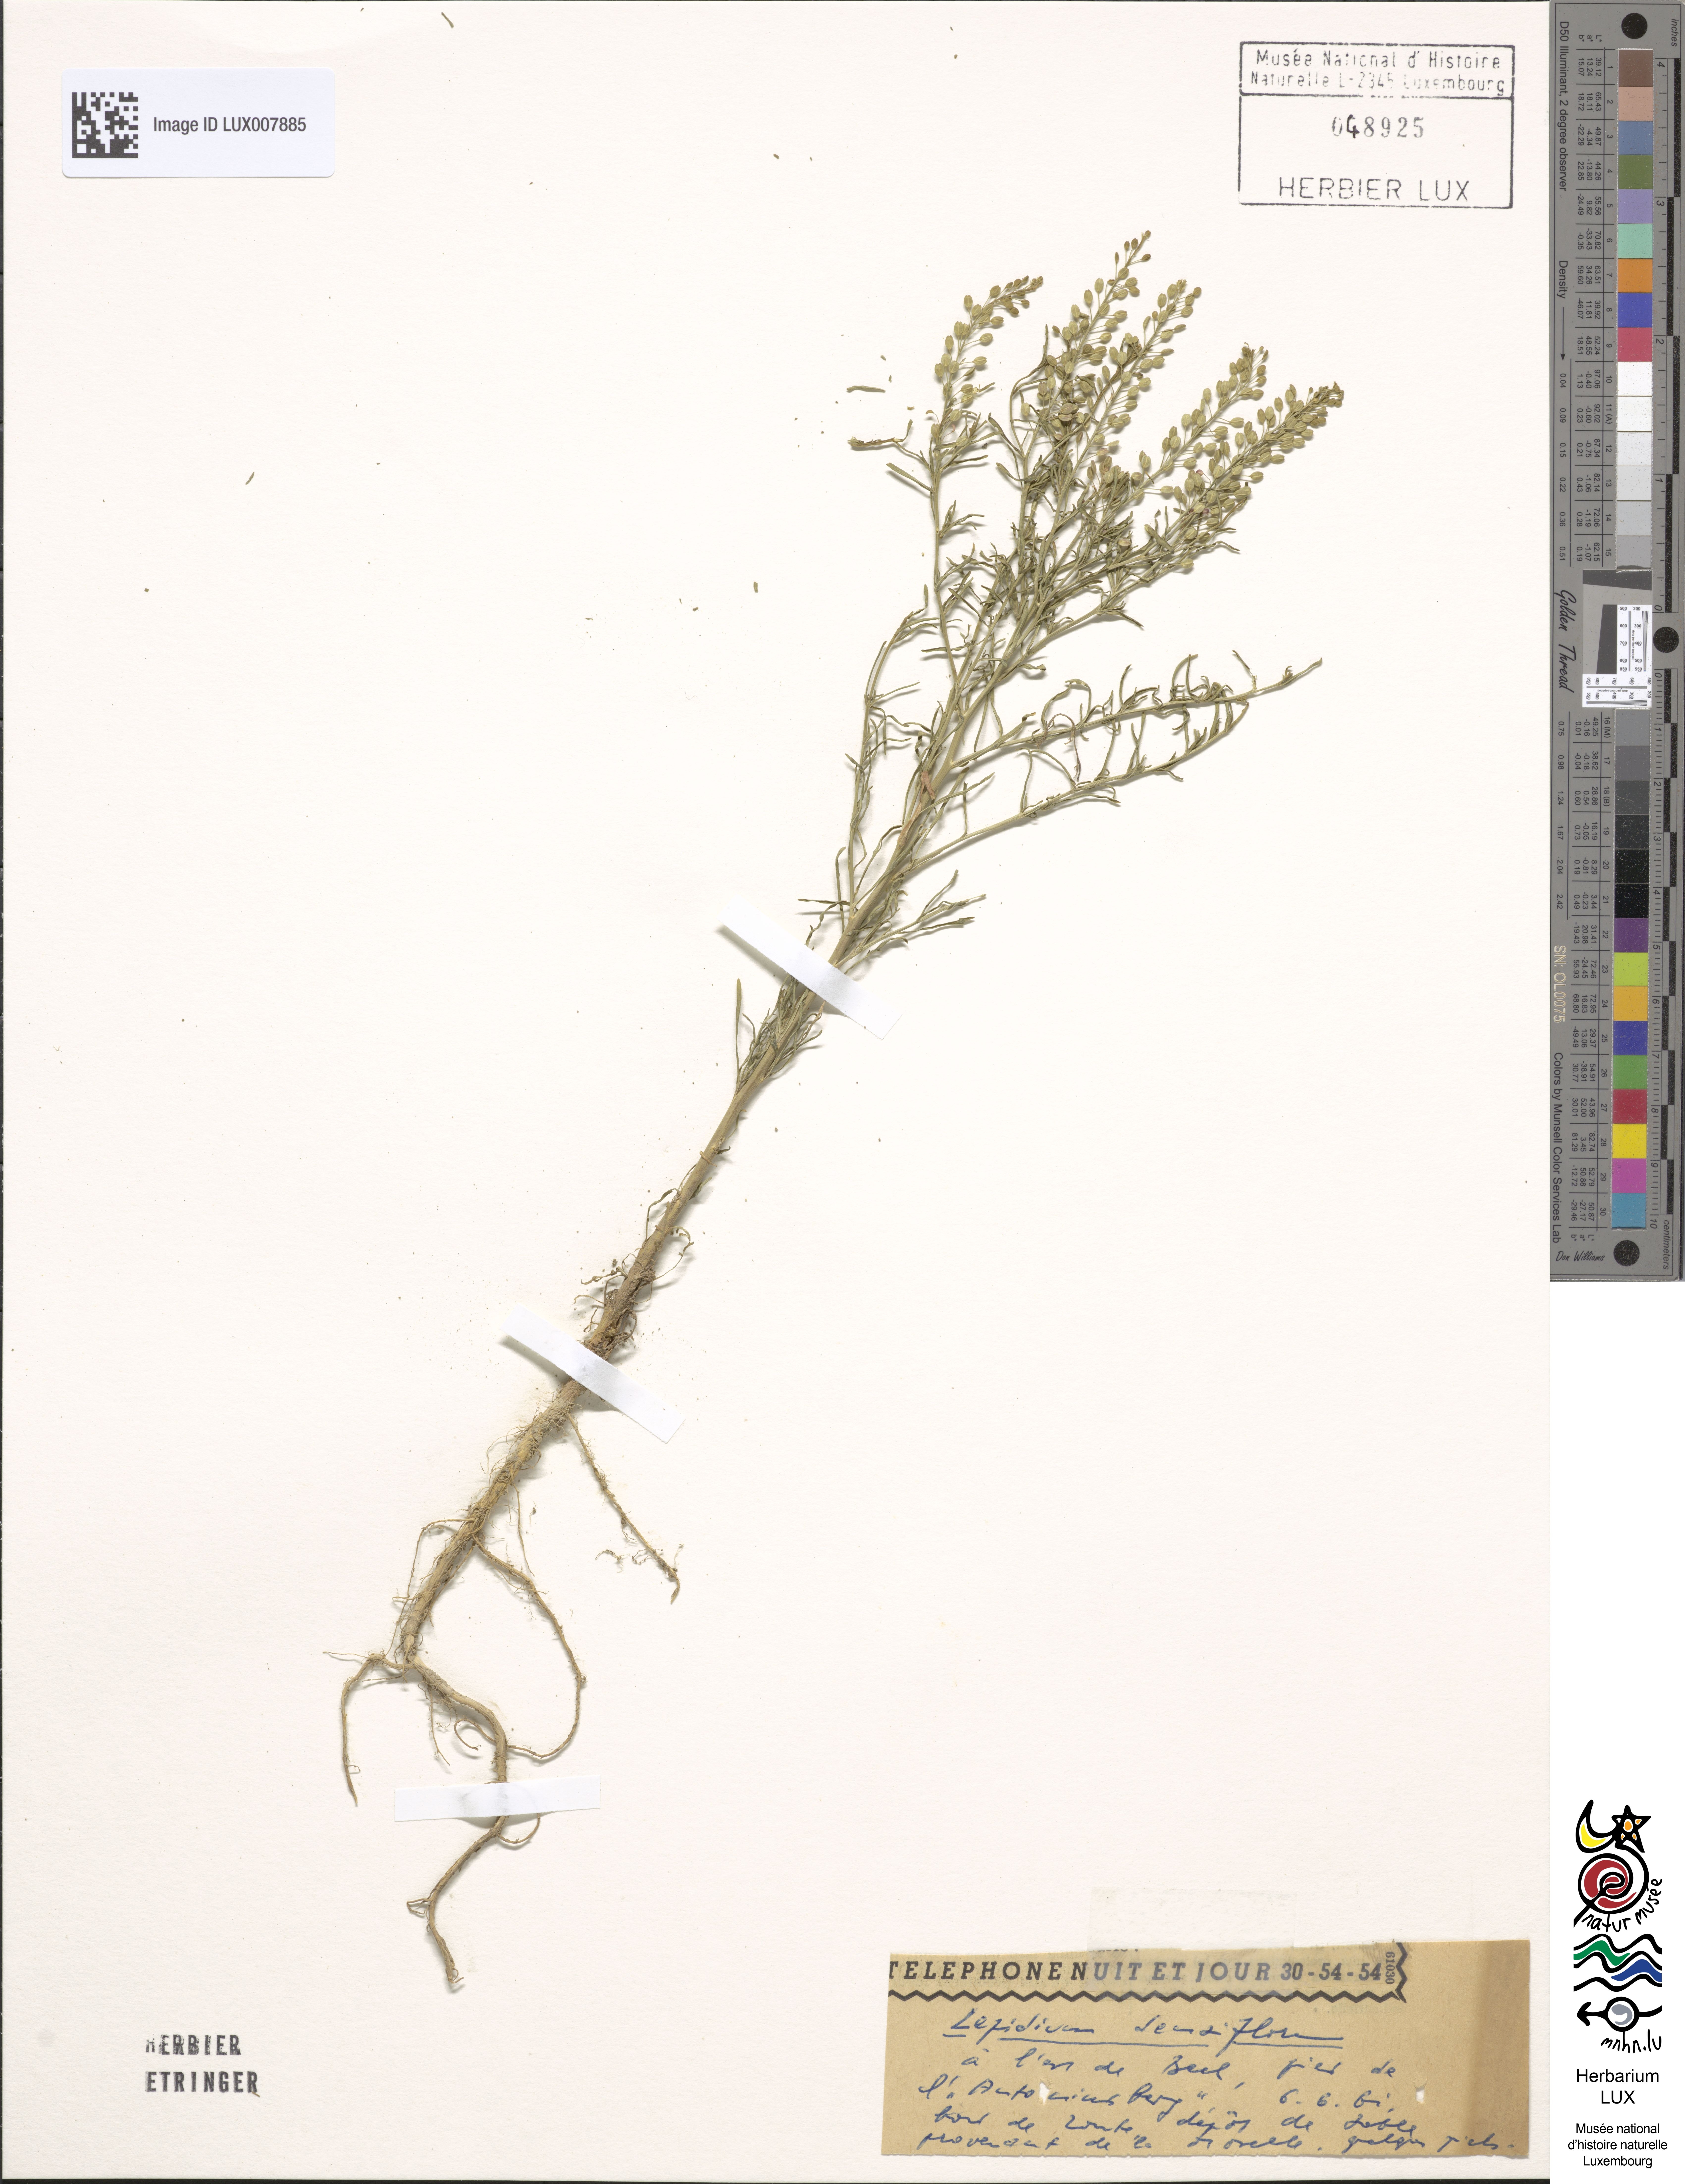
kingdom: Plantae
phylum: Tracheophyta
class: Magnoliopsida
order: Brassicales
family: Brassicaceae
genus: Lepidium
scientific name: Lepidium densiflorum
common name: Miner's pepperwort
